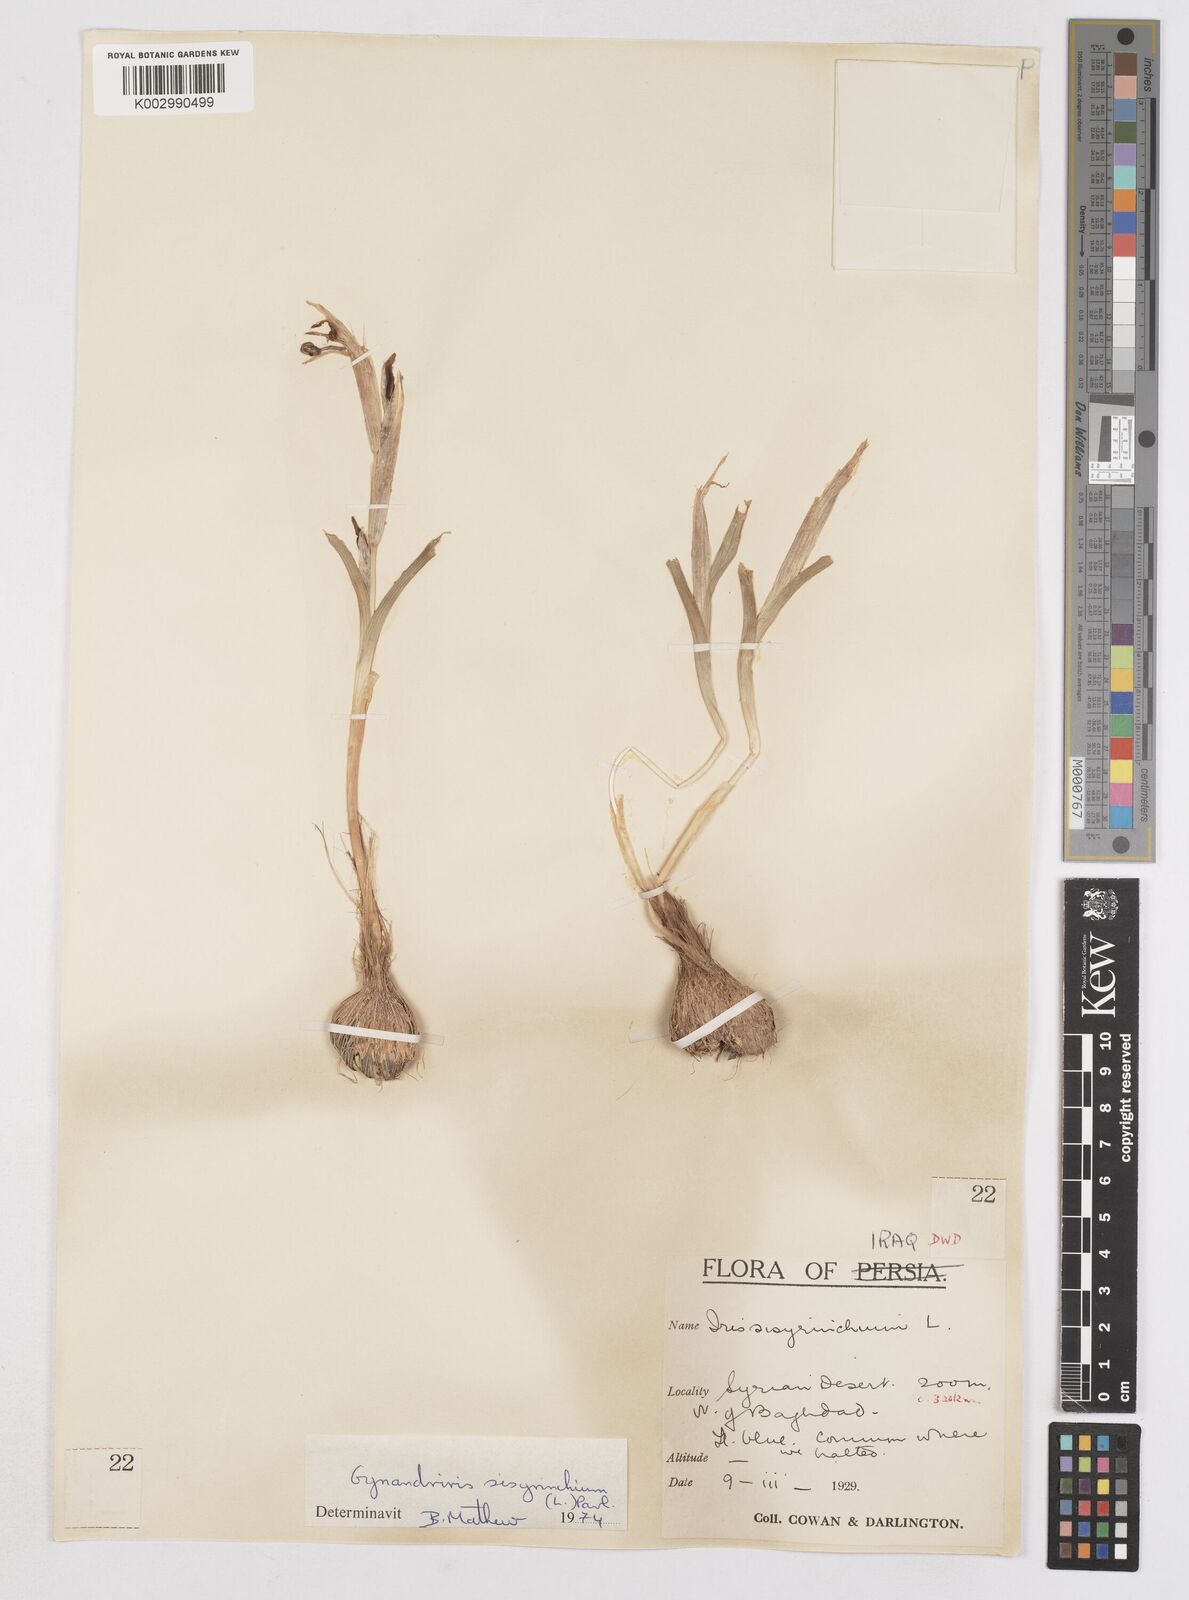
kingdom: Plantae
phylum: Tracheophyta
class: Liliopsida
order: Asparagales
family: Iridaceae
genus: Moraea
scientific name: Moraea sisyrinchium
